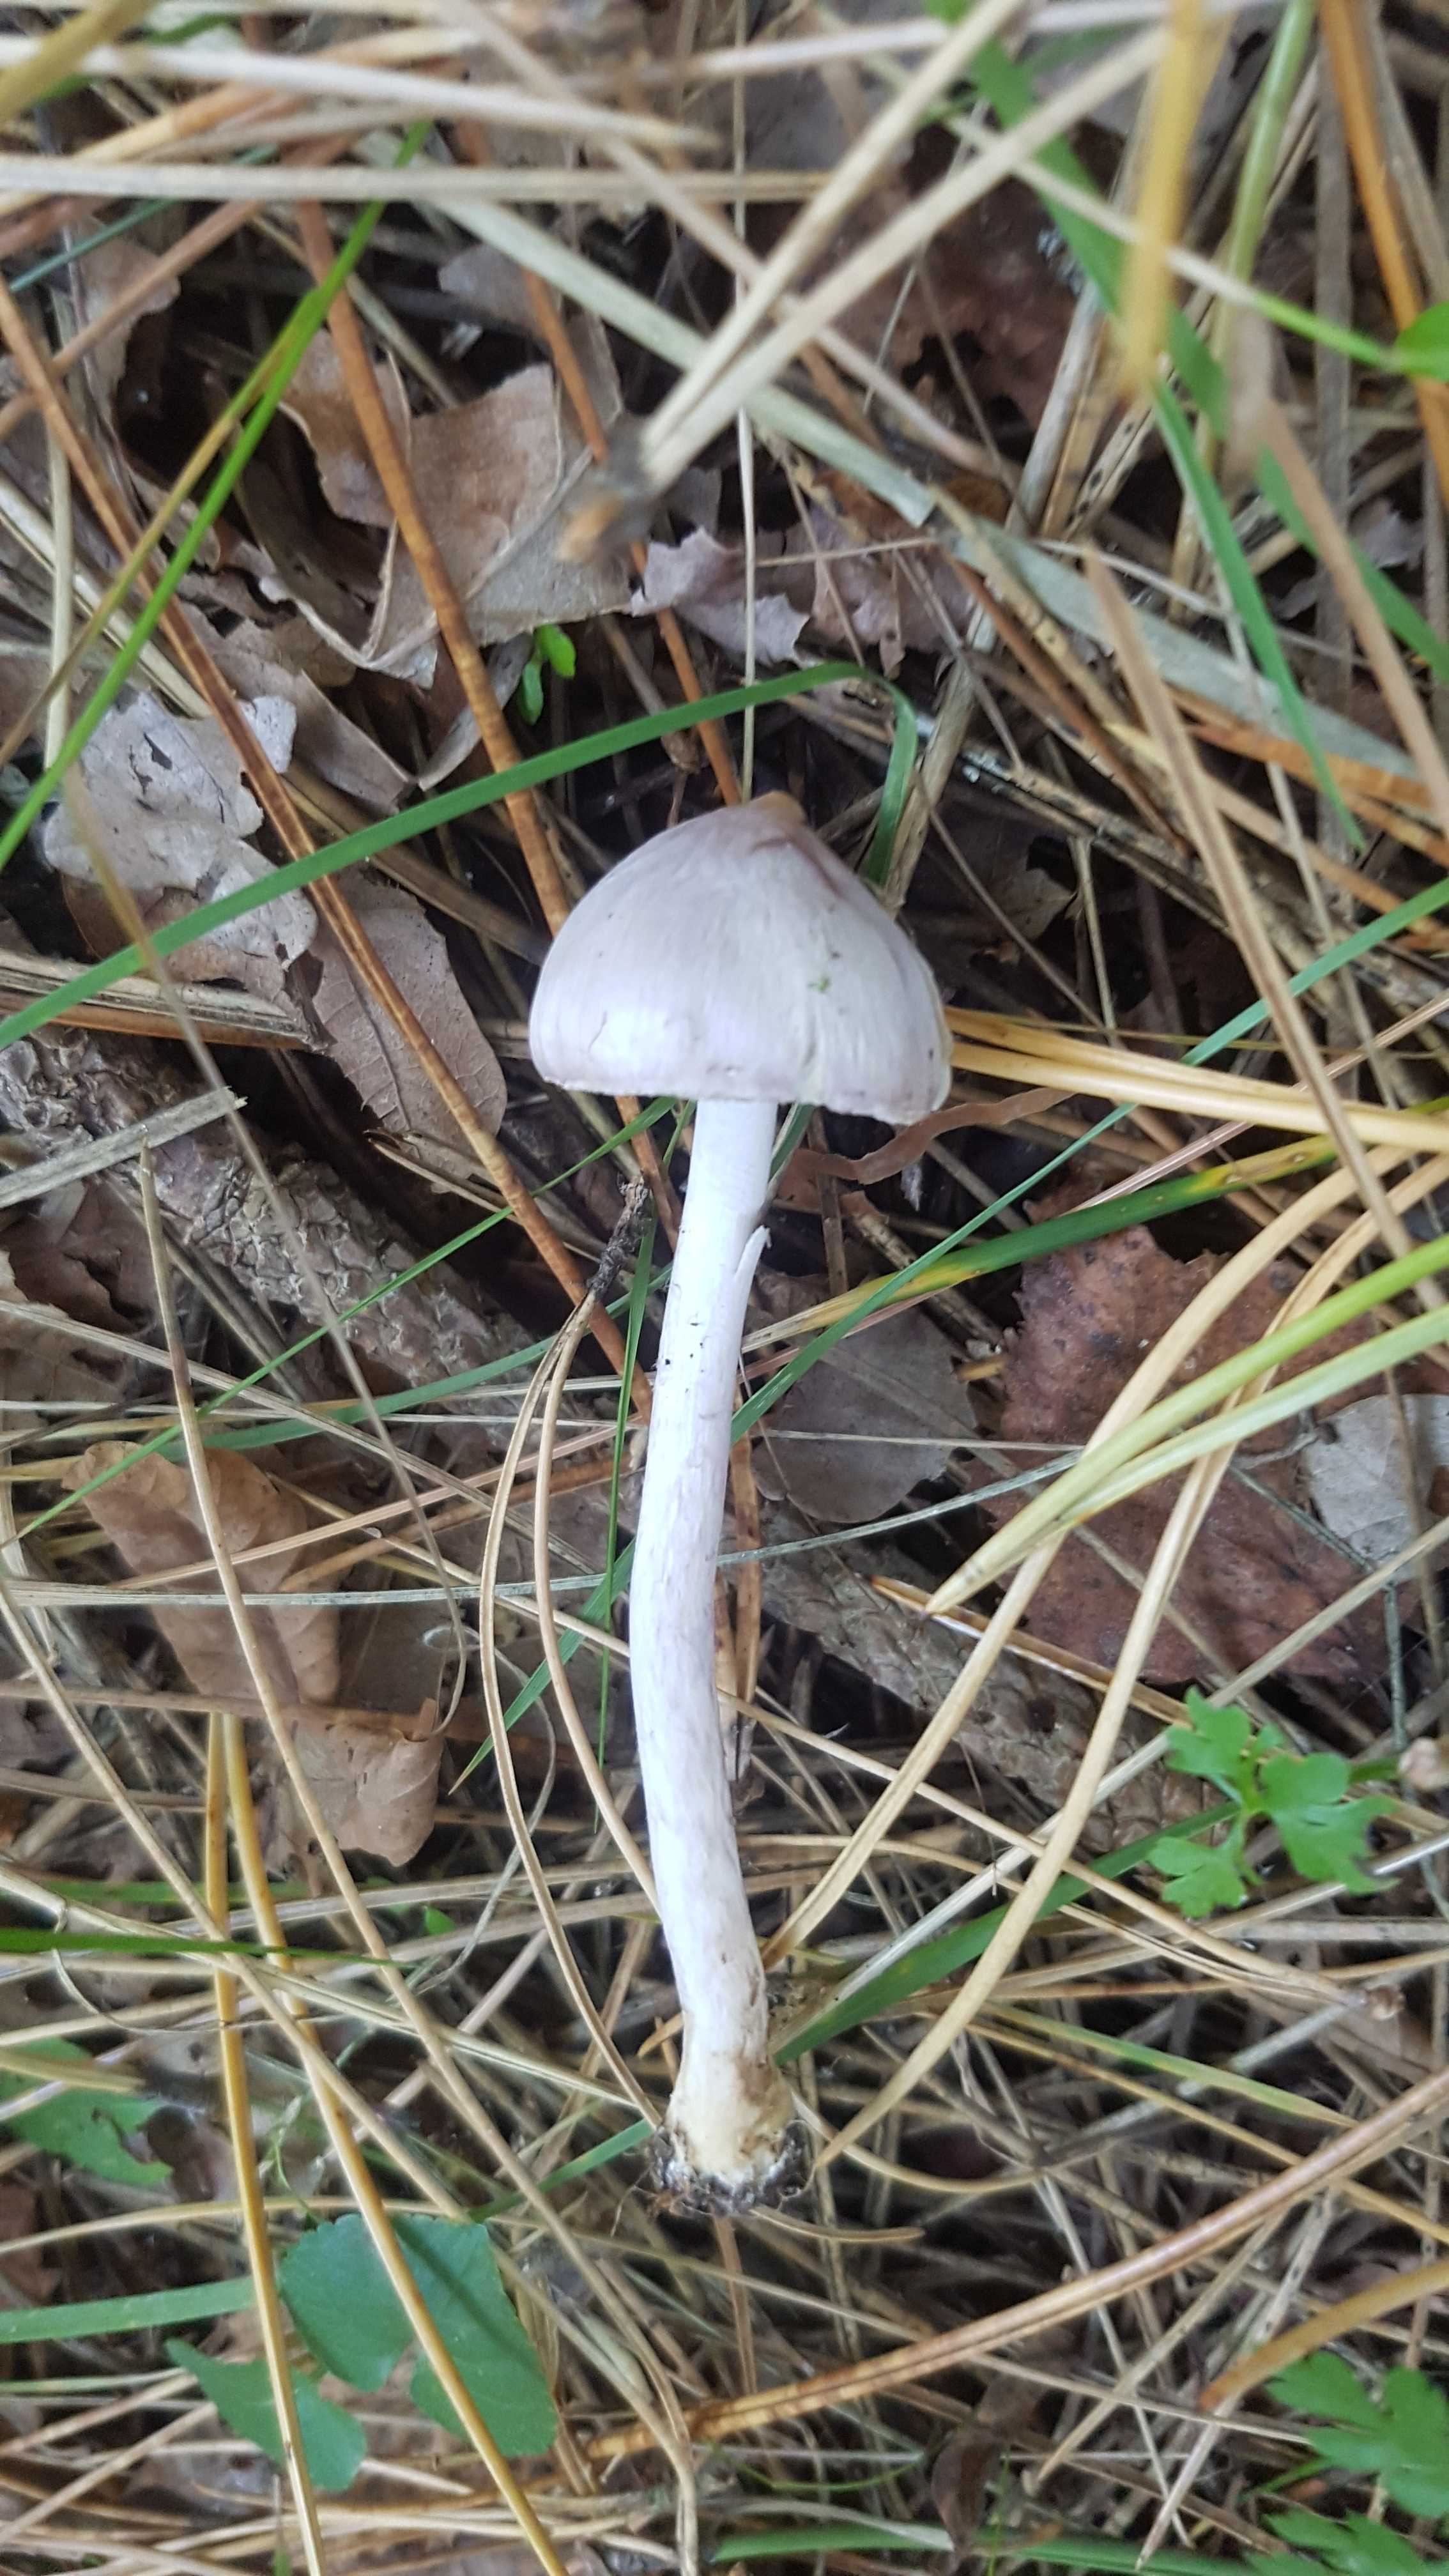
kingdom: Fungi
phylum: Basidiomycota
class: Agaricomycetes
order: Agaricales
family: Inocybaceae
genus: Inocybe
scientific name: Inocybe geophylla
